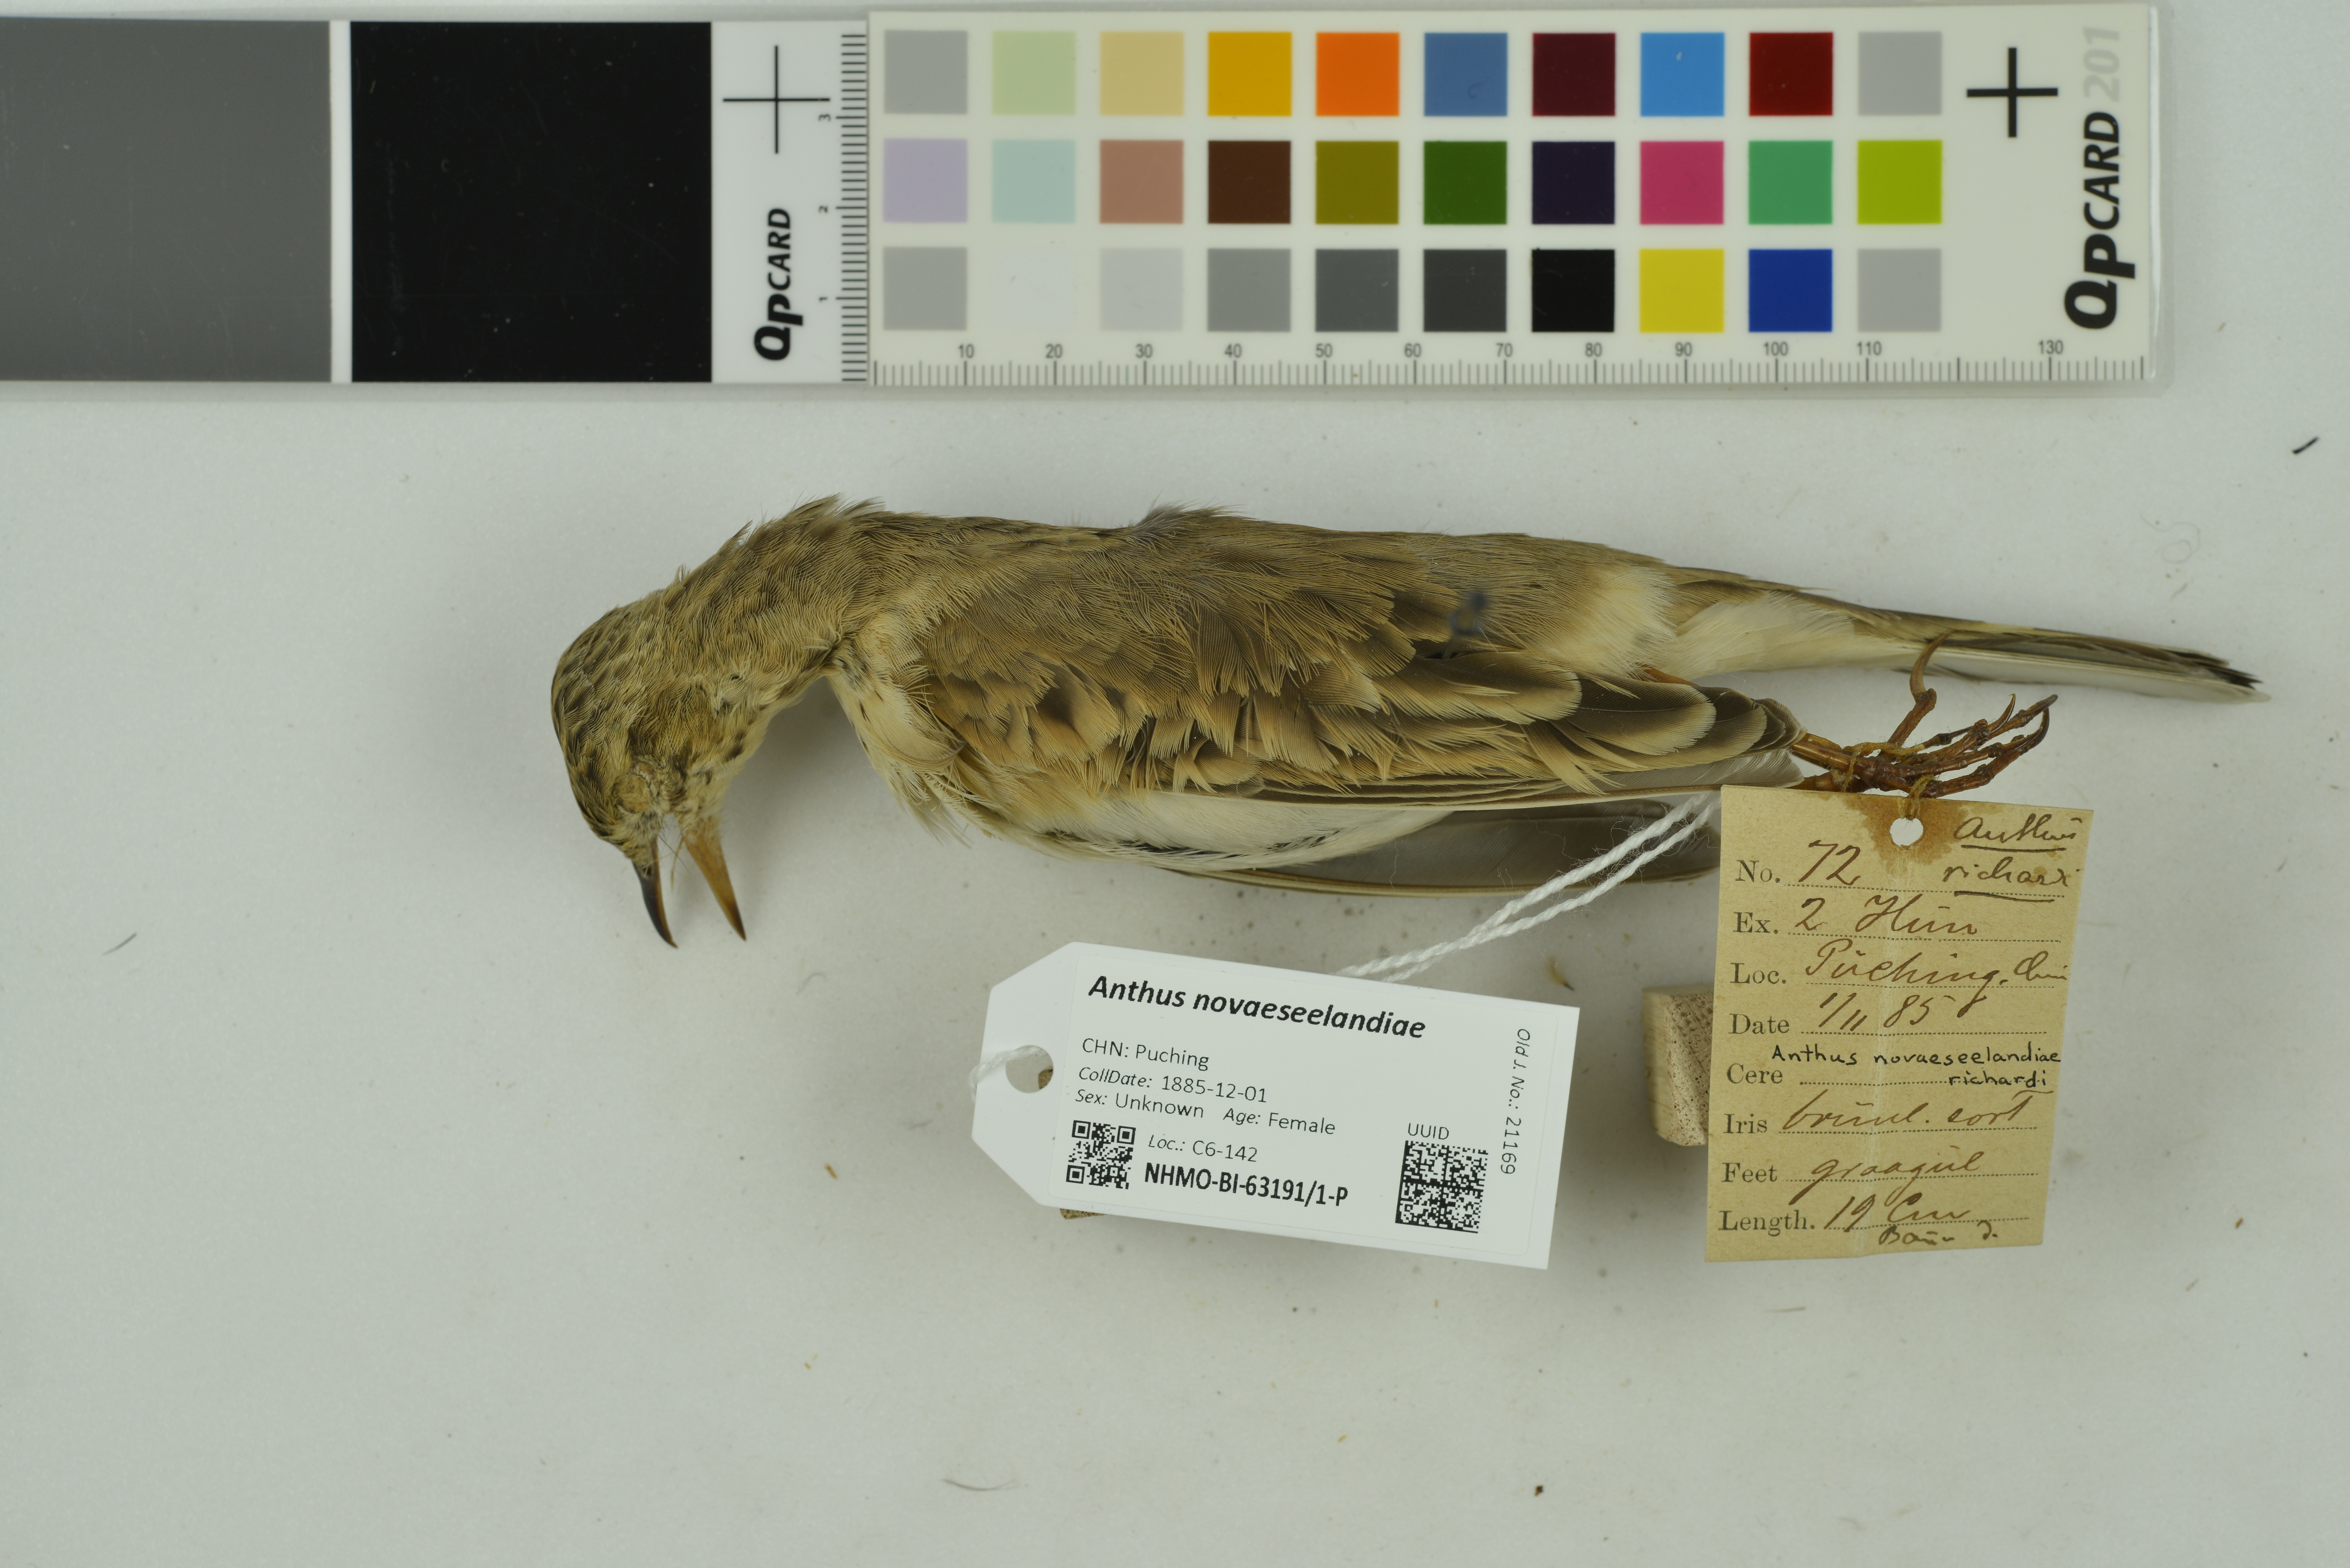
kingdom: Animalia
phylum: Chordata
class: Aves
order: Passeriformes
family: Motacillidae
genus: Anthus
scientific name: Anthus novaeseelandiae
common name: New zealand pipit
